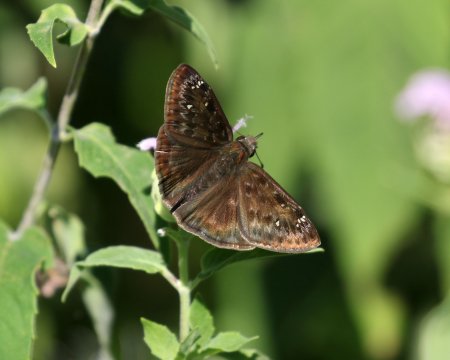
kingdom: Animalia
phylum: Arthropoda
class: Insecta
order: Lepidoptera
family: Hesperiidae
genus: Gesta
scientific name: Gesta
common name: Horace's Duskywing
